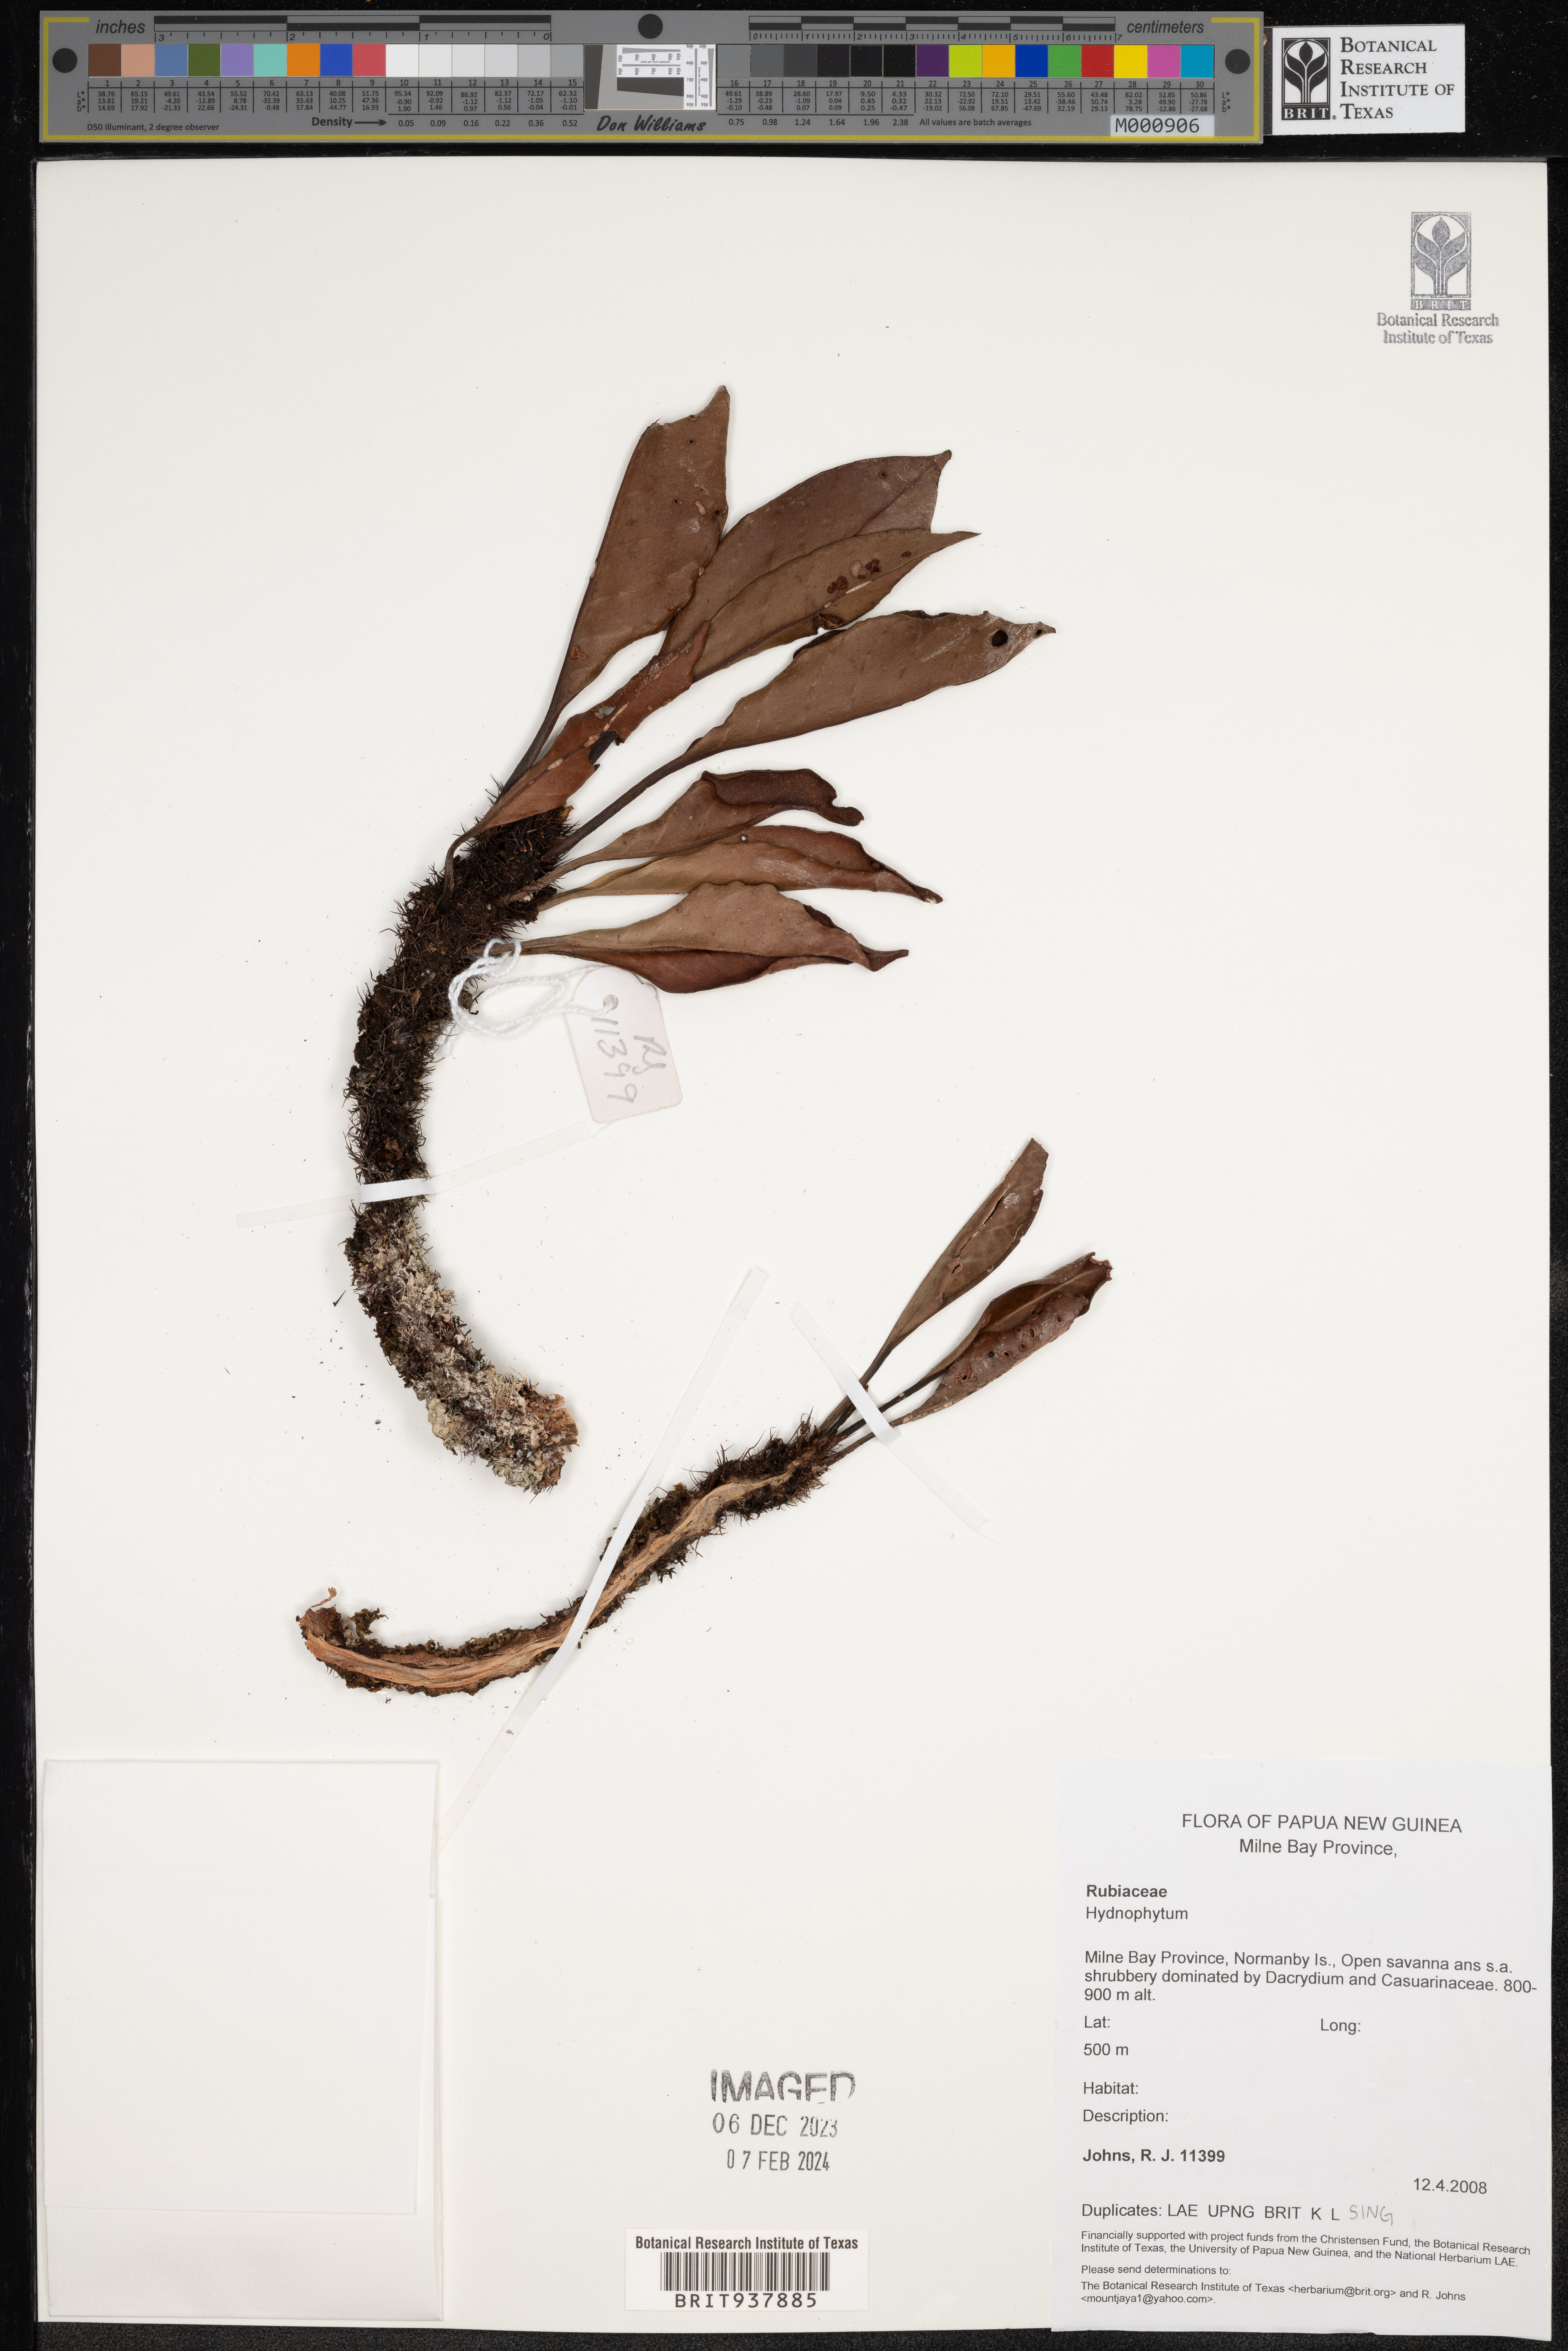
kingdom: Plantae
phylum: Tracheophyta
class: Magnoliopsida
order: Gentianales
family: Rubiaceae
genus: Hydnophytum
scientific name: Hydnophytum
